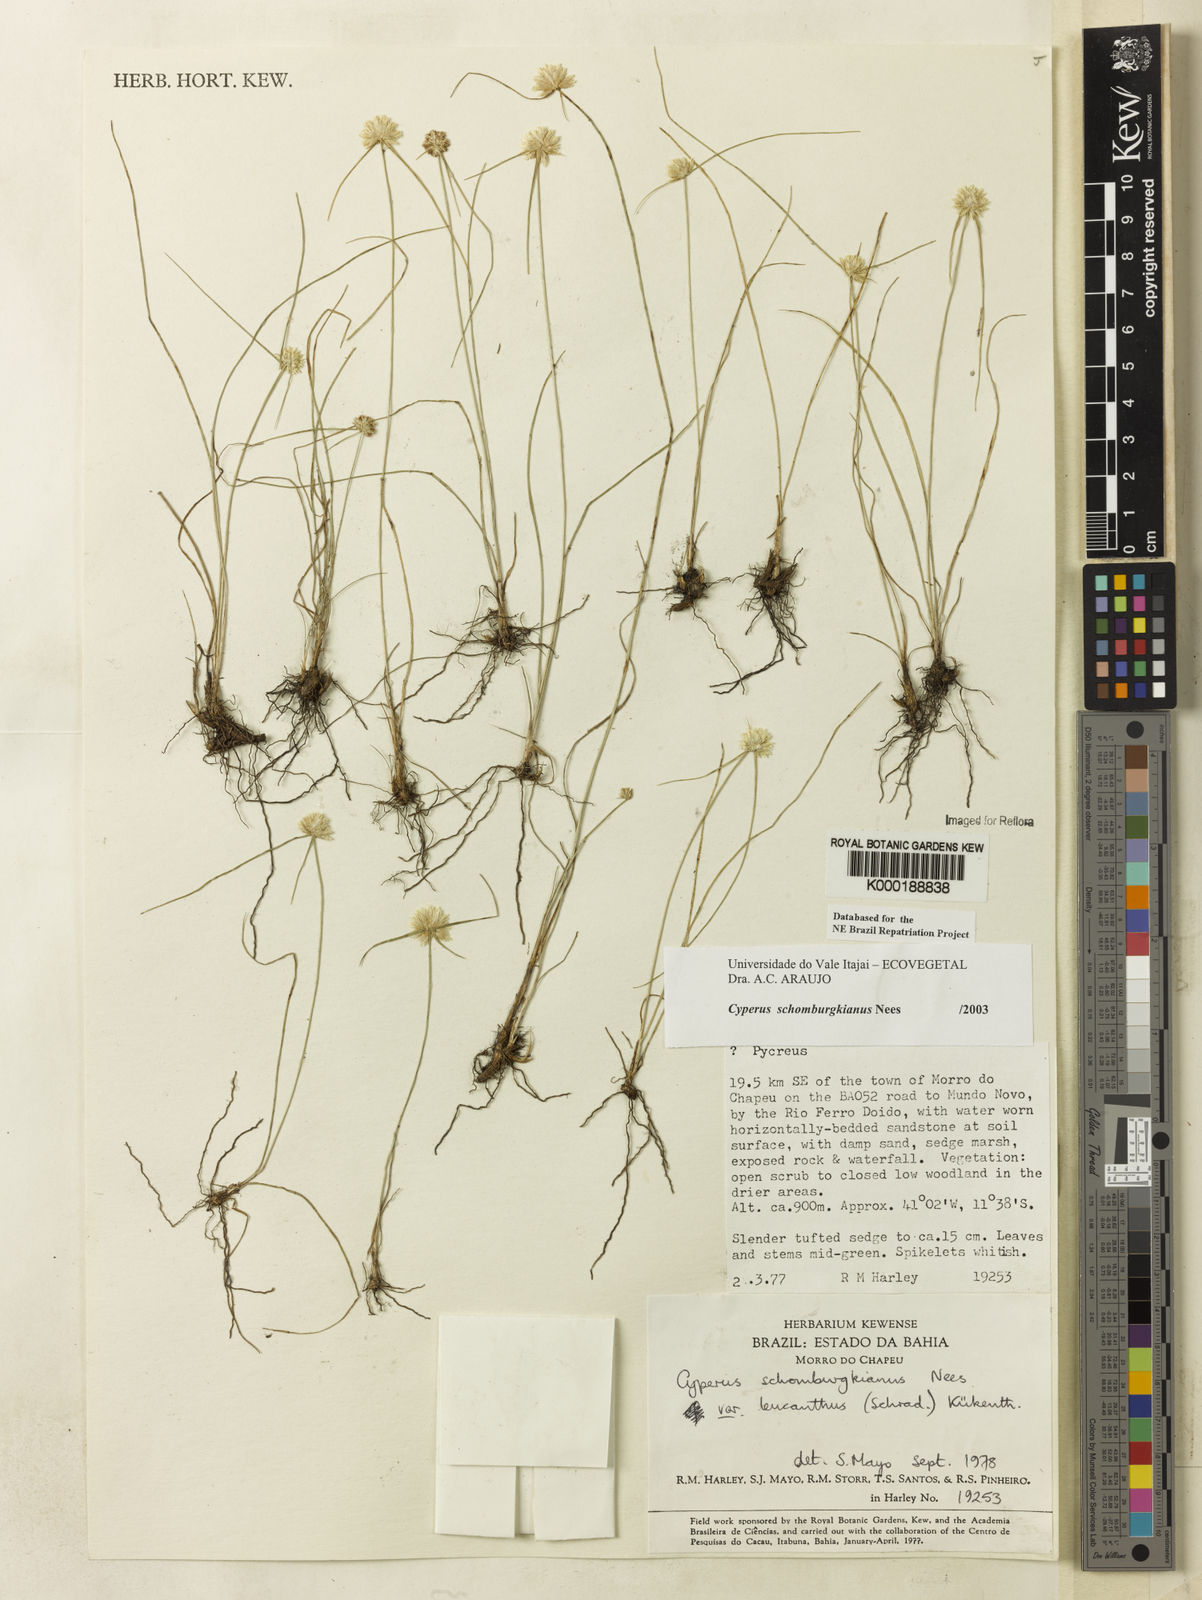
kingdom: Plantae
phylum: Tracheophyta
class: Liliopsida
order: Poales
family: Cyperaceae
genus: Cyperus
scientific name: Cyperus schomburgkianus
